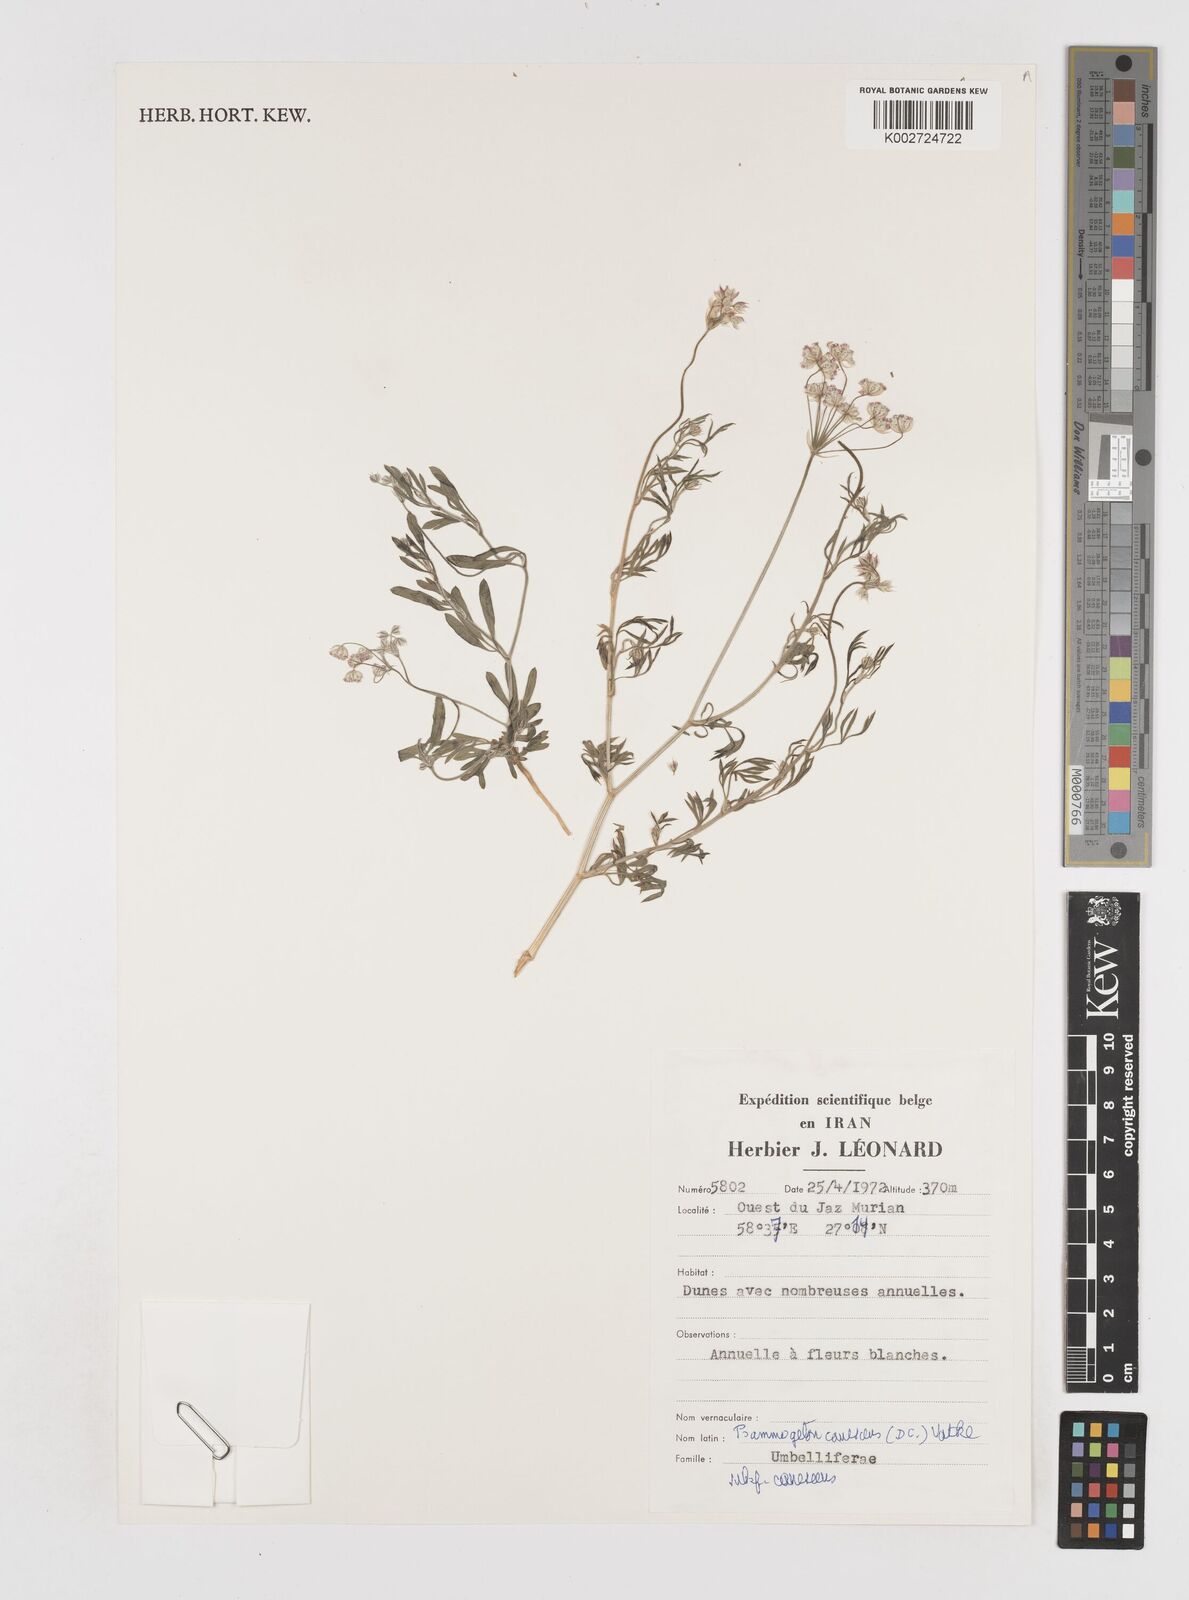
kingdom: Plantae
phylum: Tracheophyta
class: Magnoliopsida
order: Apiales
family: Apiaceae
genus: Psammogeton
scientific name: Psammogeton canescens
